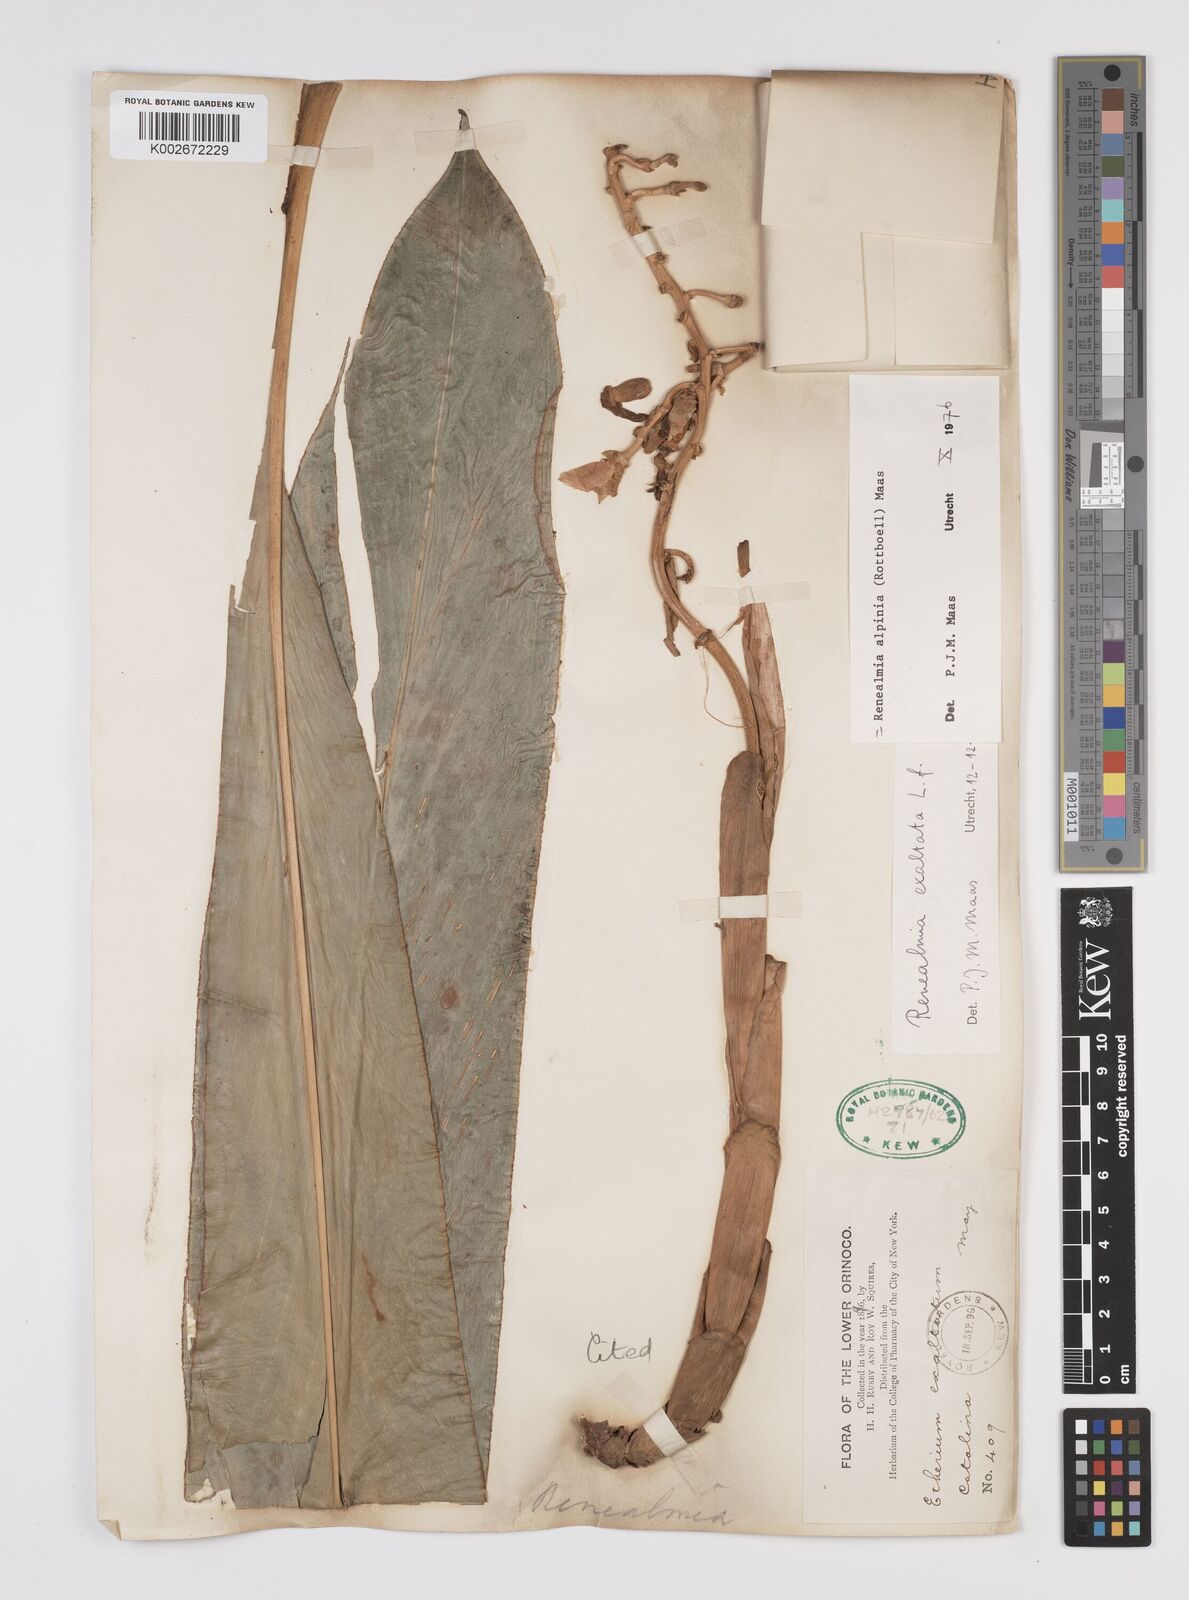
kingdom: Plantae
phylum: Tracheophyta
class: Liliopsida
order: Zingiberales
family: Zingiberaceae
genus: Renealmia
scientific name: Renealmia alpinia
